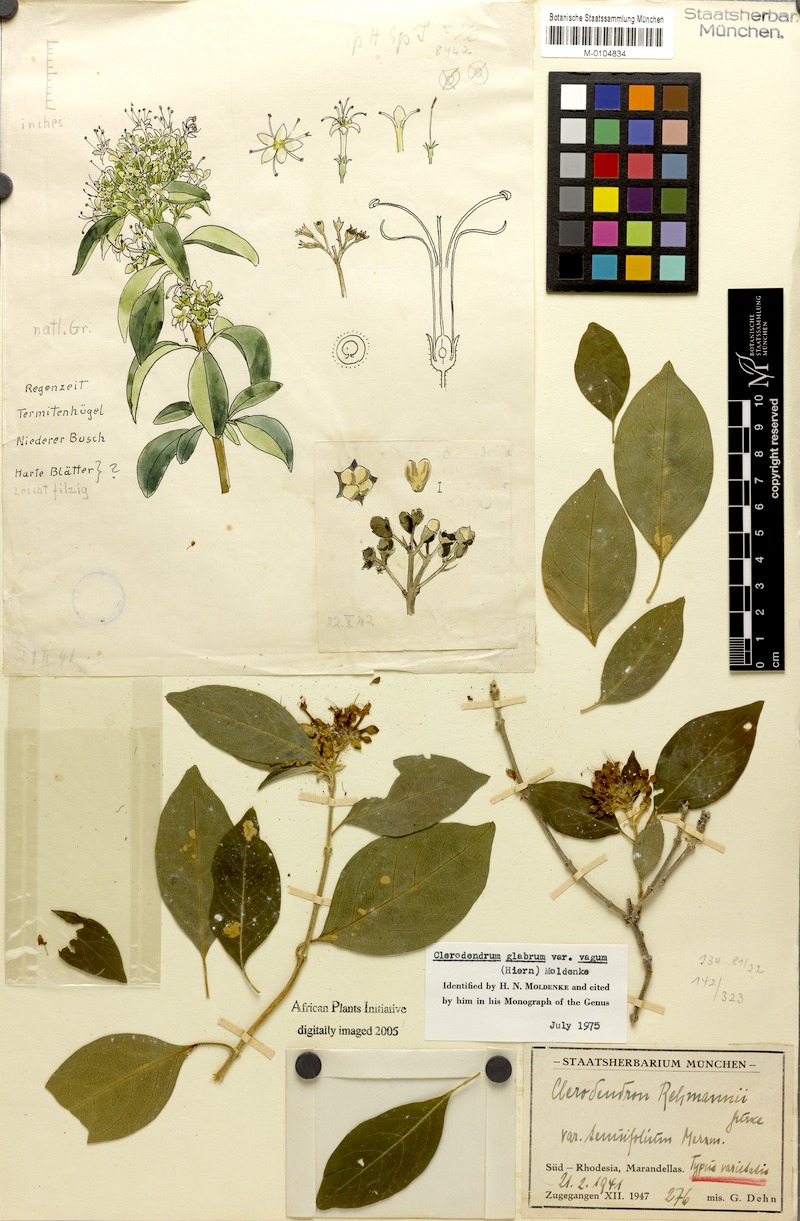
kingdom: Plantae
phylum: Tracheophyta
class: Magnoliopsida
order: Lamiales
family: Lamiaceae
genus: Volkameria
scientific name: Volkameria glabra
